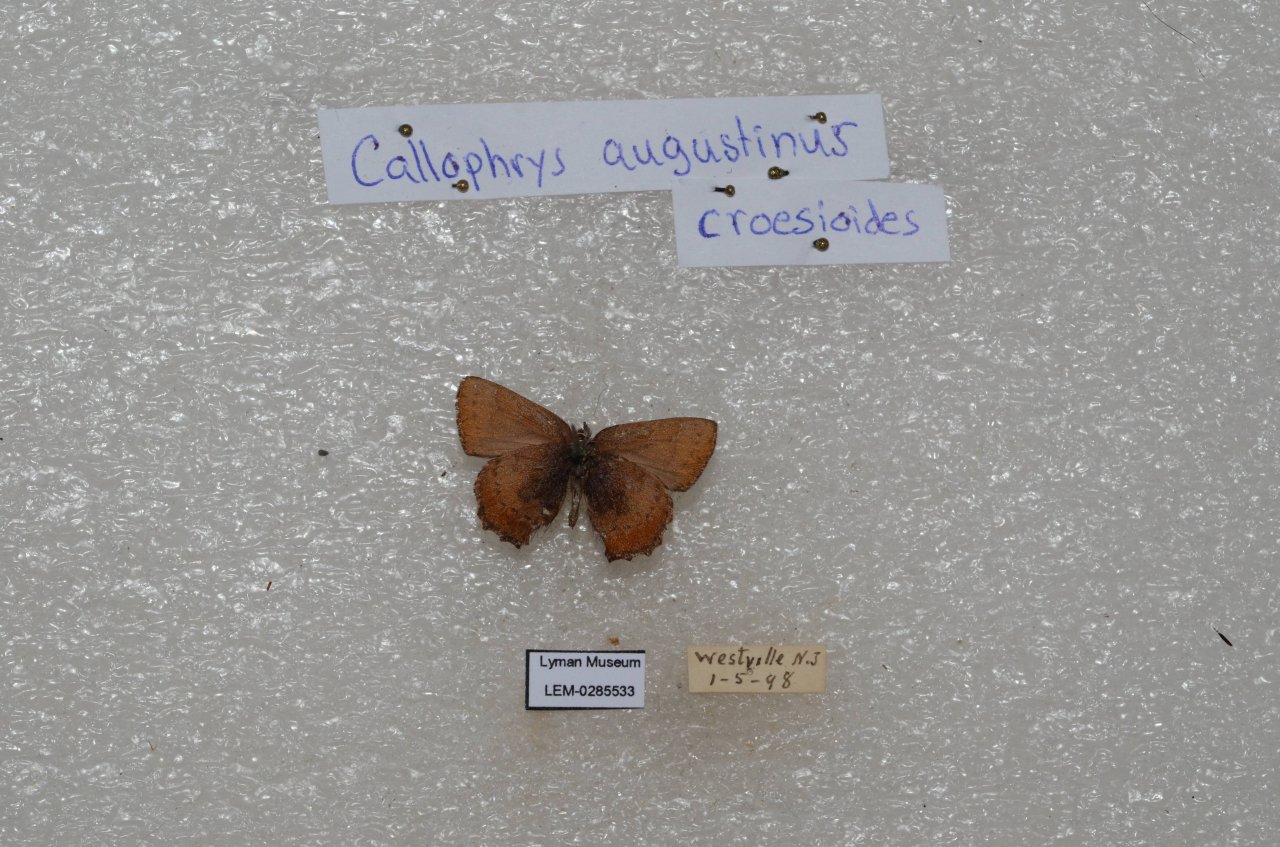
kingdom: Animalia
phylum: Arthropoda
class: Insecta
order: Lepidoptera
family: Lycaenidae
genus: Incisalia
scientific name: Incisalia irioides
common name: Brown Elfin
